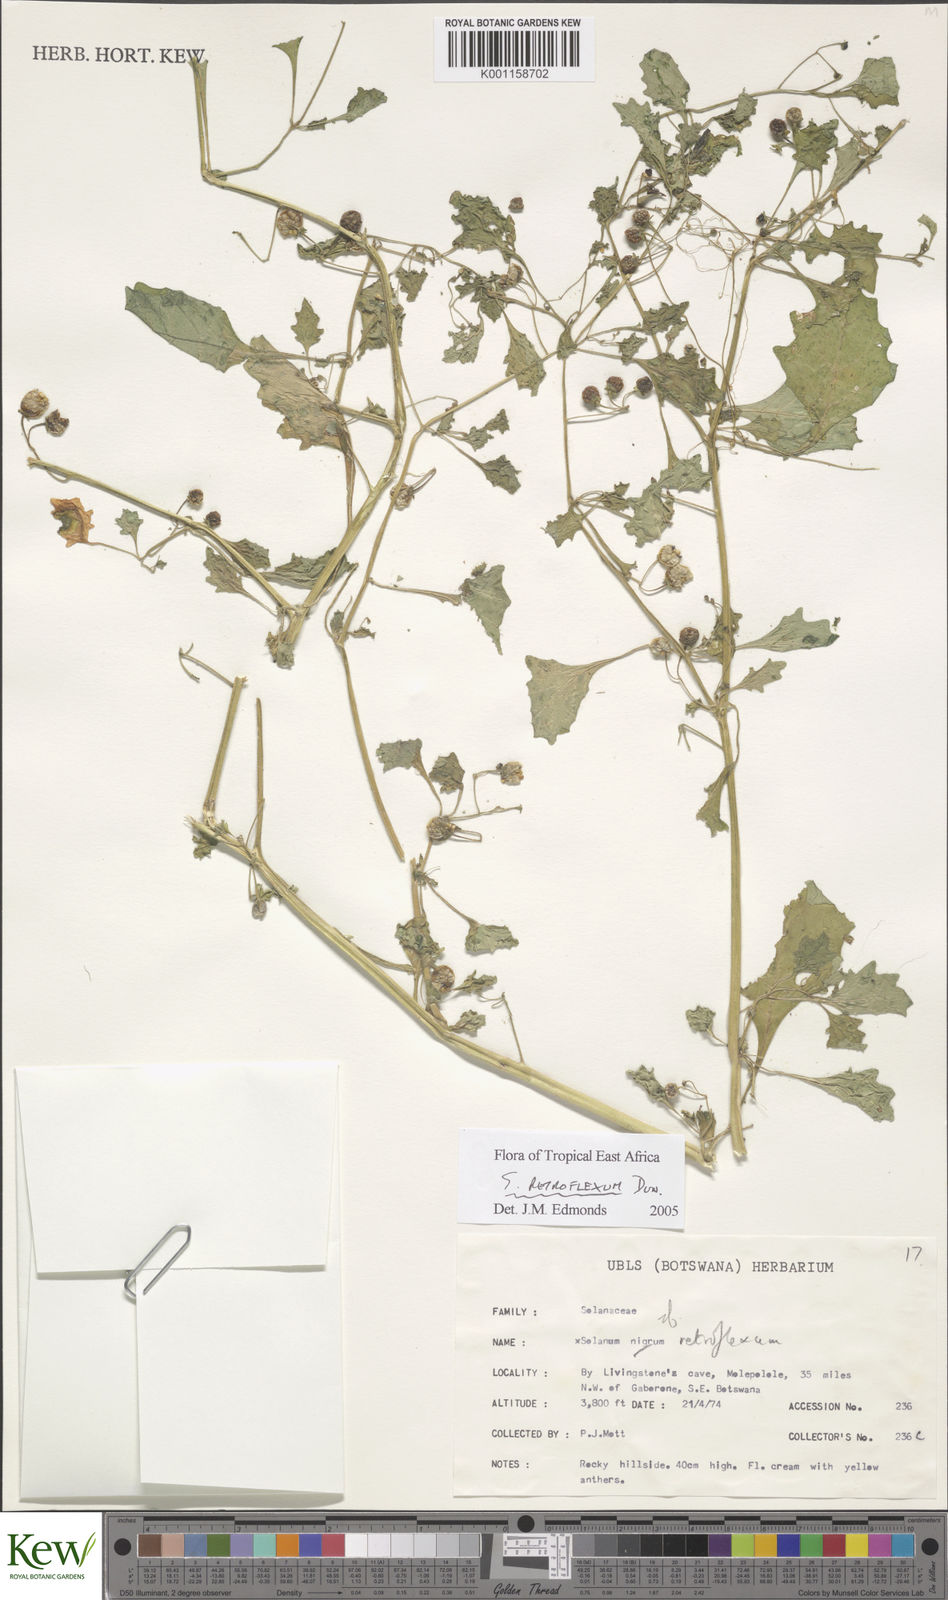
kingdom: Plantae
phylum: Tracheophyta
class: Magnoliopsida
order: Solanales
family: Solanaceae
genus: Solanum
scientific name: Solanum retroflexum
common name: Wonderberry
